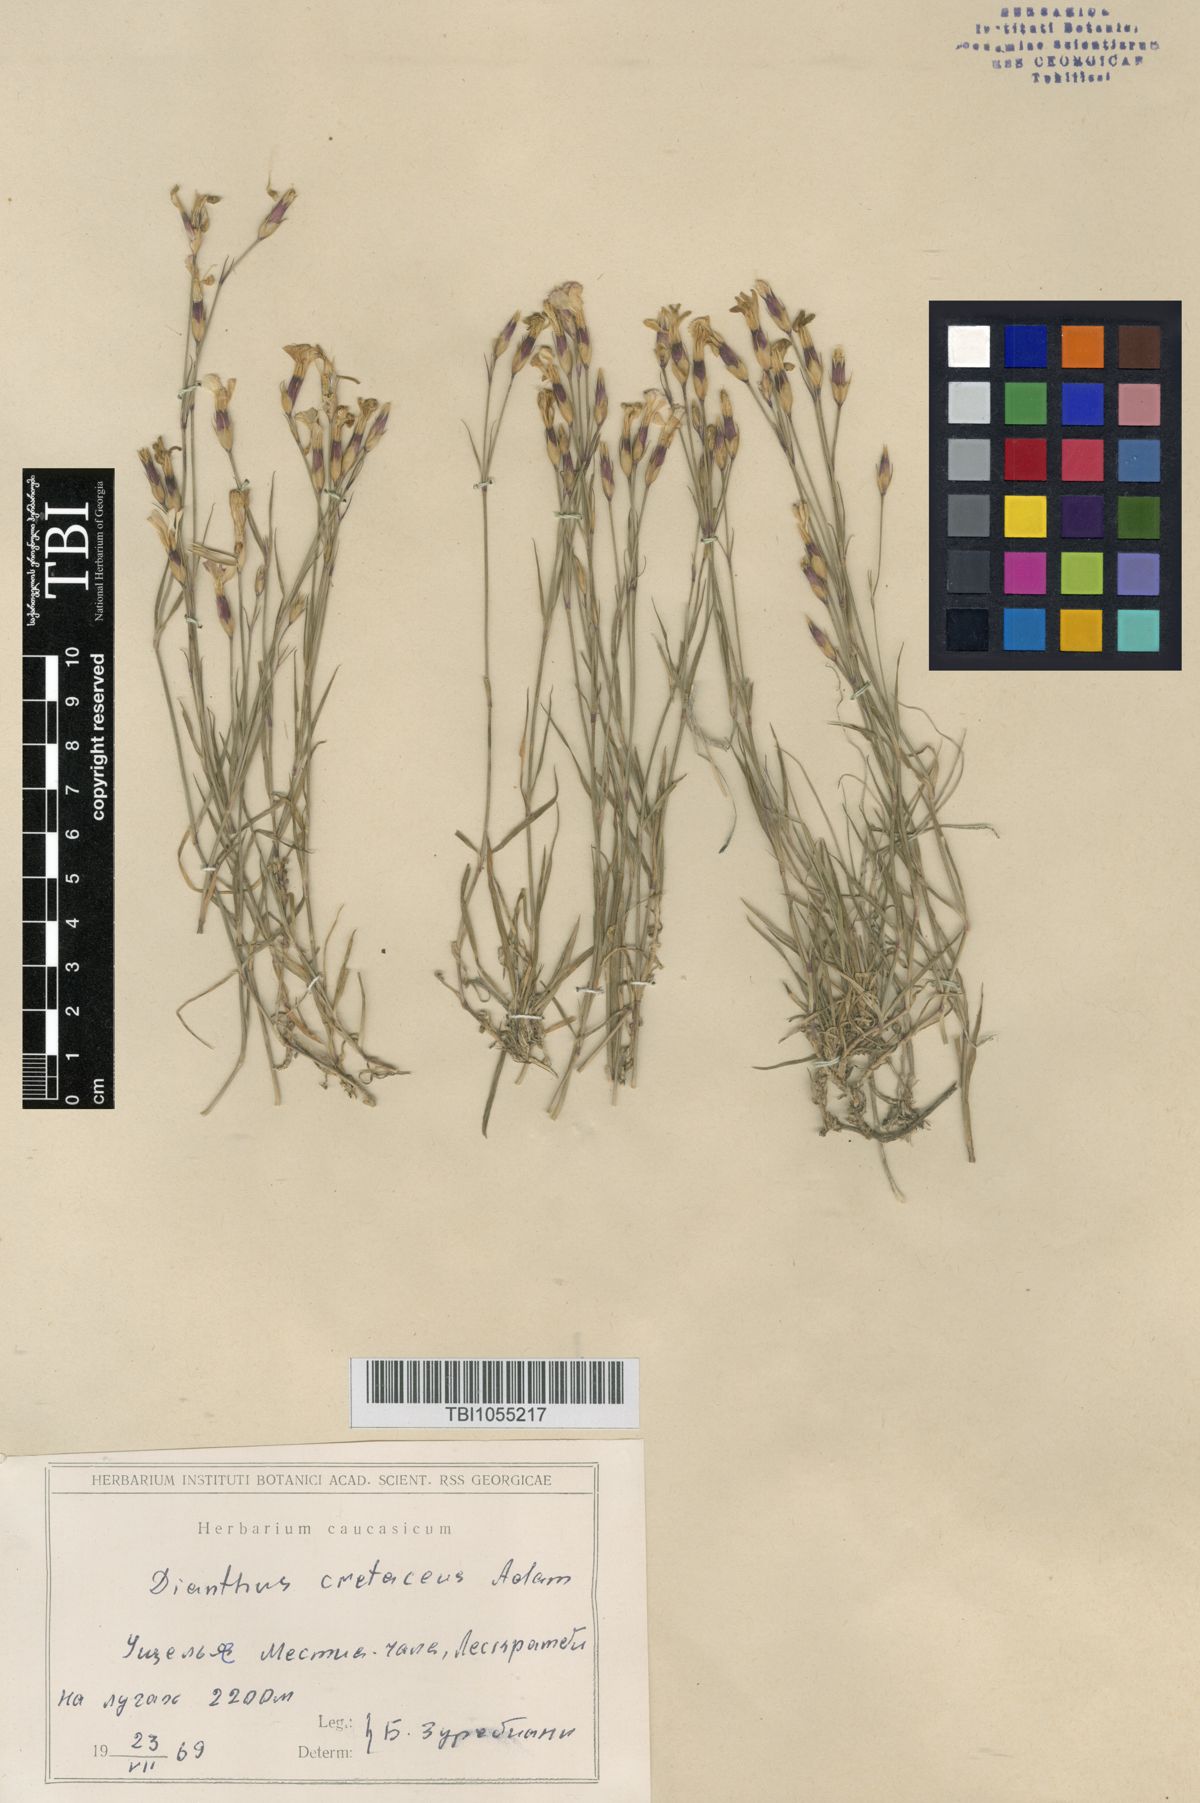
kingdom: Plantae
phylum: Tracheophyta
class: Magnoliopsida
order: Caryophyllales
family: Caryophyllaceae
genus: Dianthus
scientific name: Dianthus cretaceus
